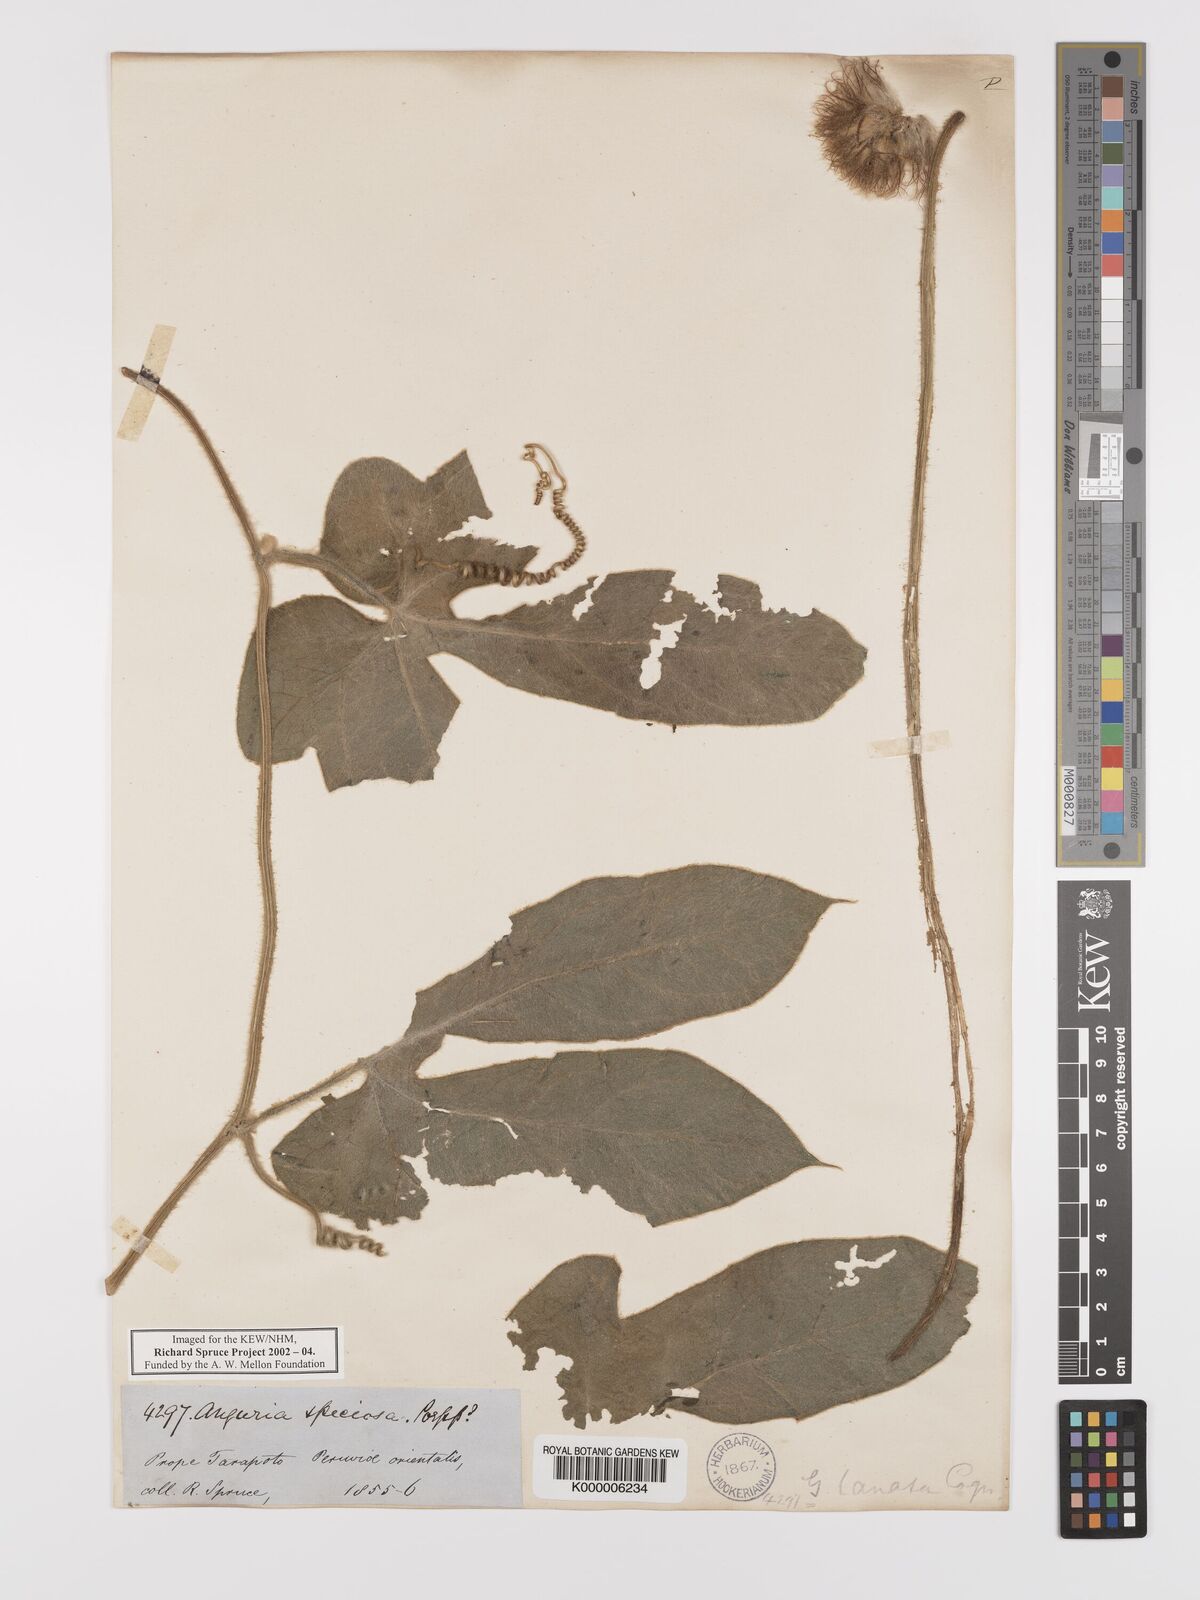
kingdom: Plantae
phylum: Tracheophyta
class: Magnoliopsida
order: Cucurbitales
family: Cucurbitaceae
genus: Gurania
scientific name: Gurania eriantha
